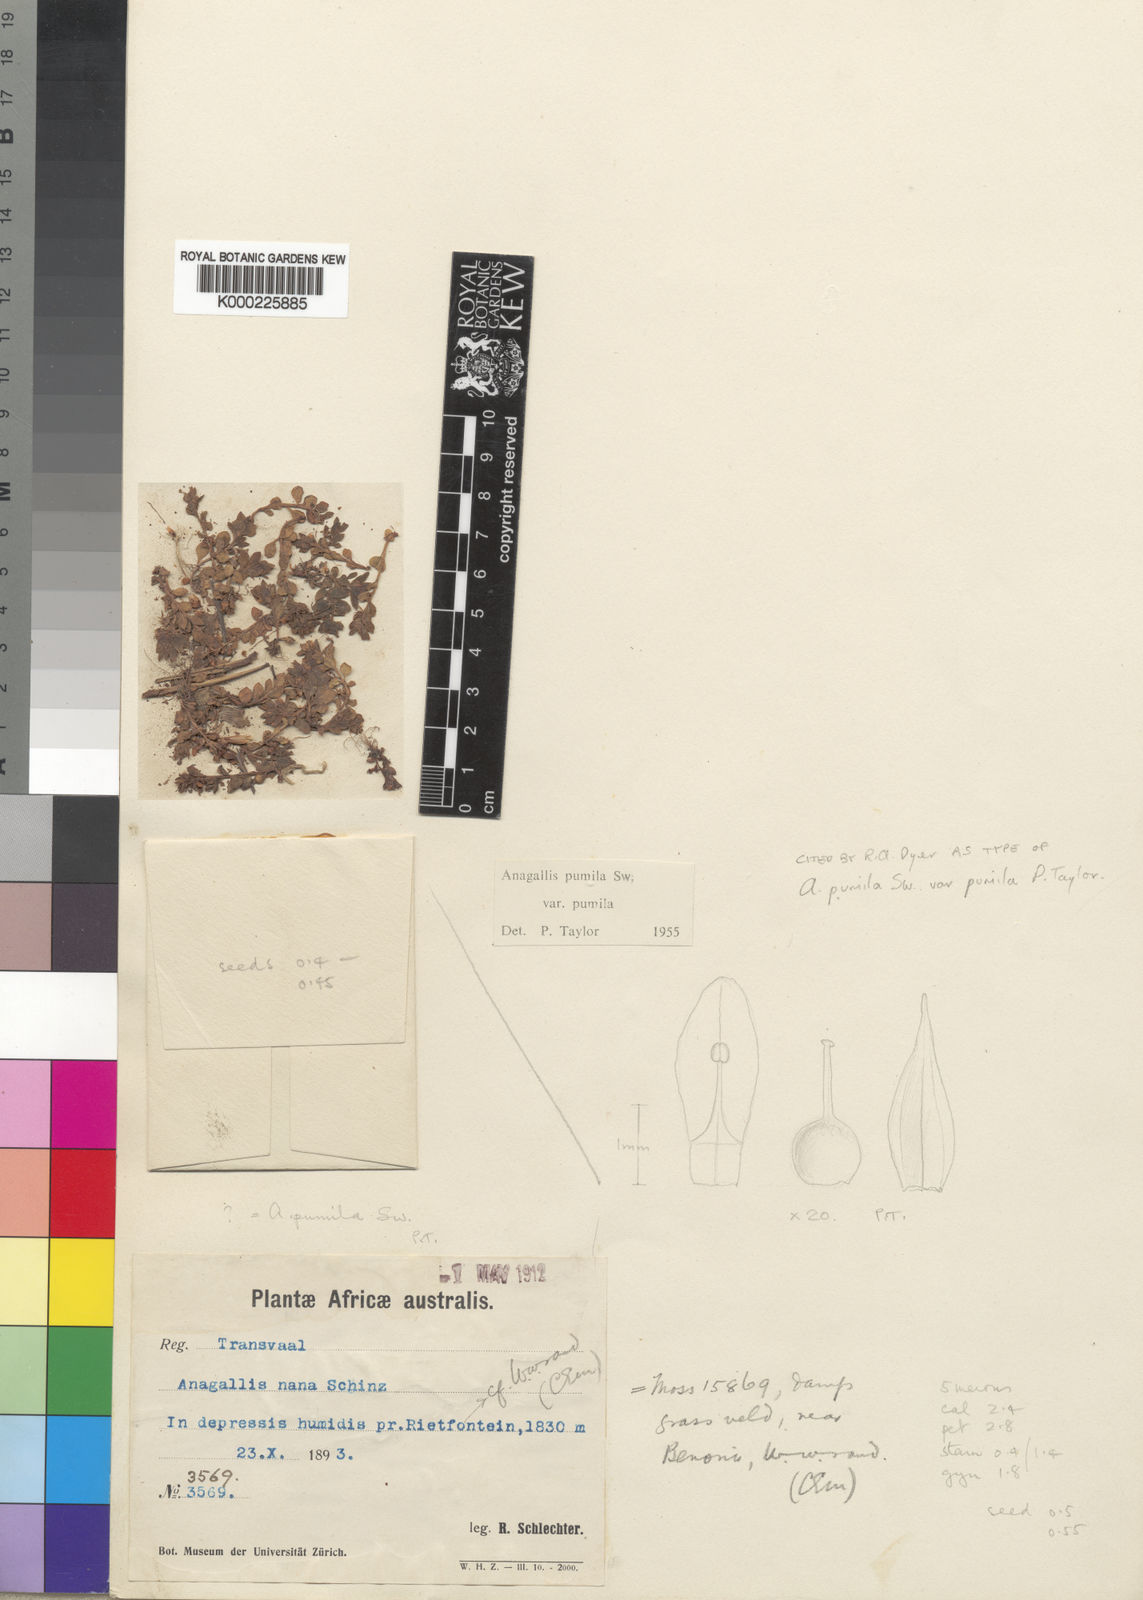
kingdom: Plantae
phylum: Tracheophyta
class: Magnoliopsida
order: Ericales
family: Primulaceae
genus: Lysimachia
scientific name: Lysimachia Anagallis spec
